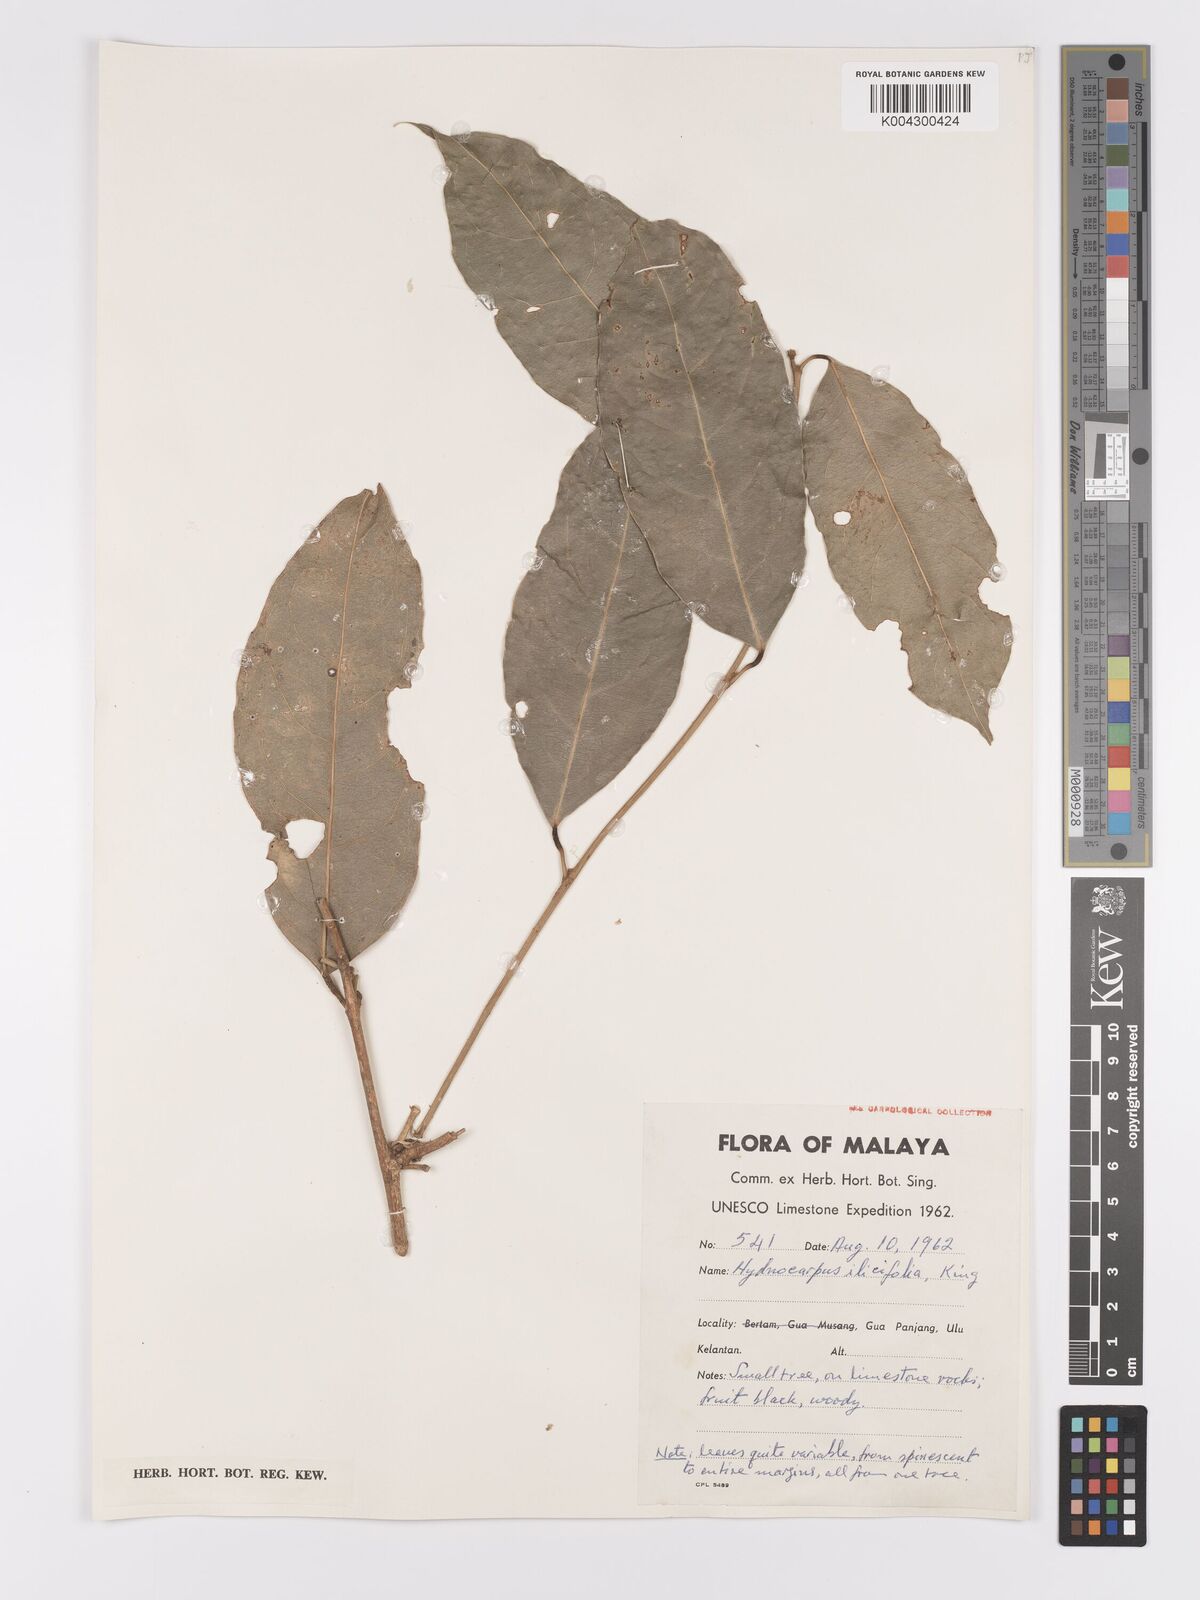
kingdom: Plantae
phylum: Tracheophyta
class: Magnoliopsida
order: Malpighiales
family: Achariaceae
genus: Hydnocarpus
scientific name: Hydnocarpus ilicifolius
